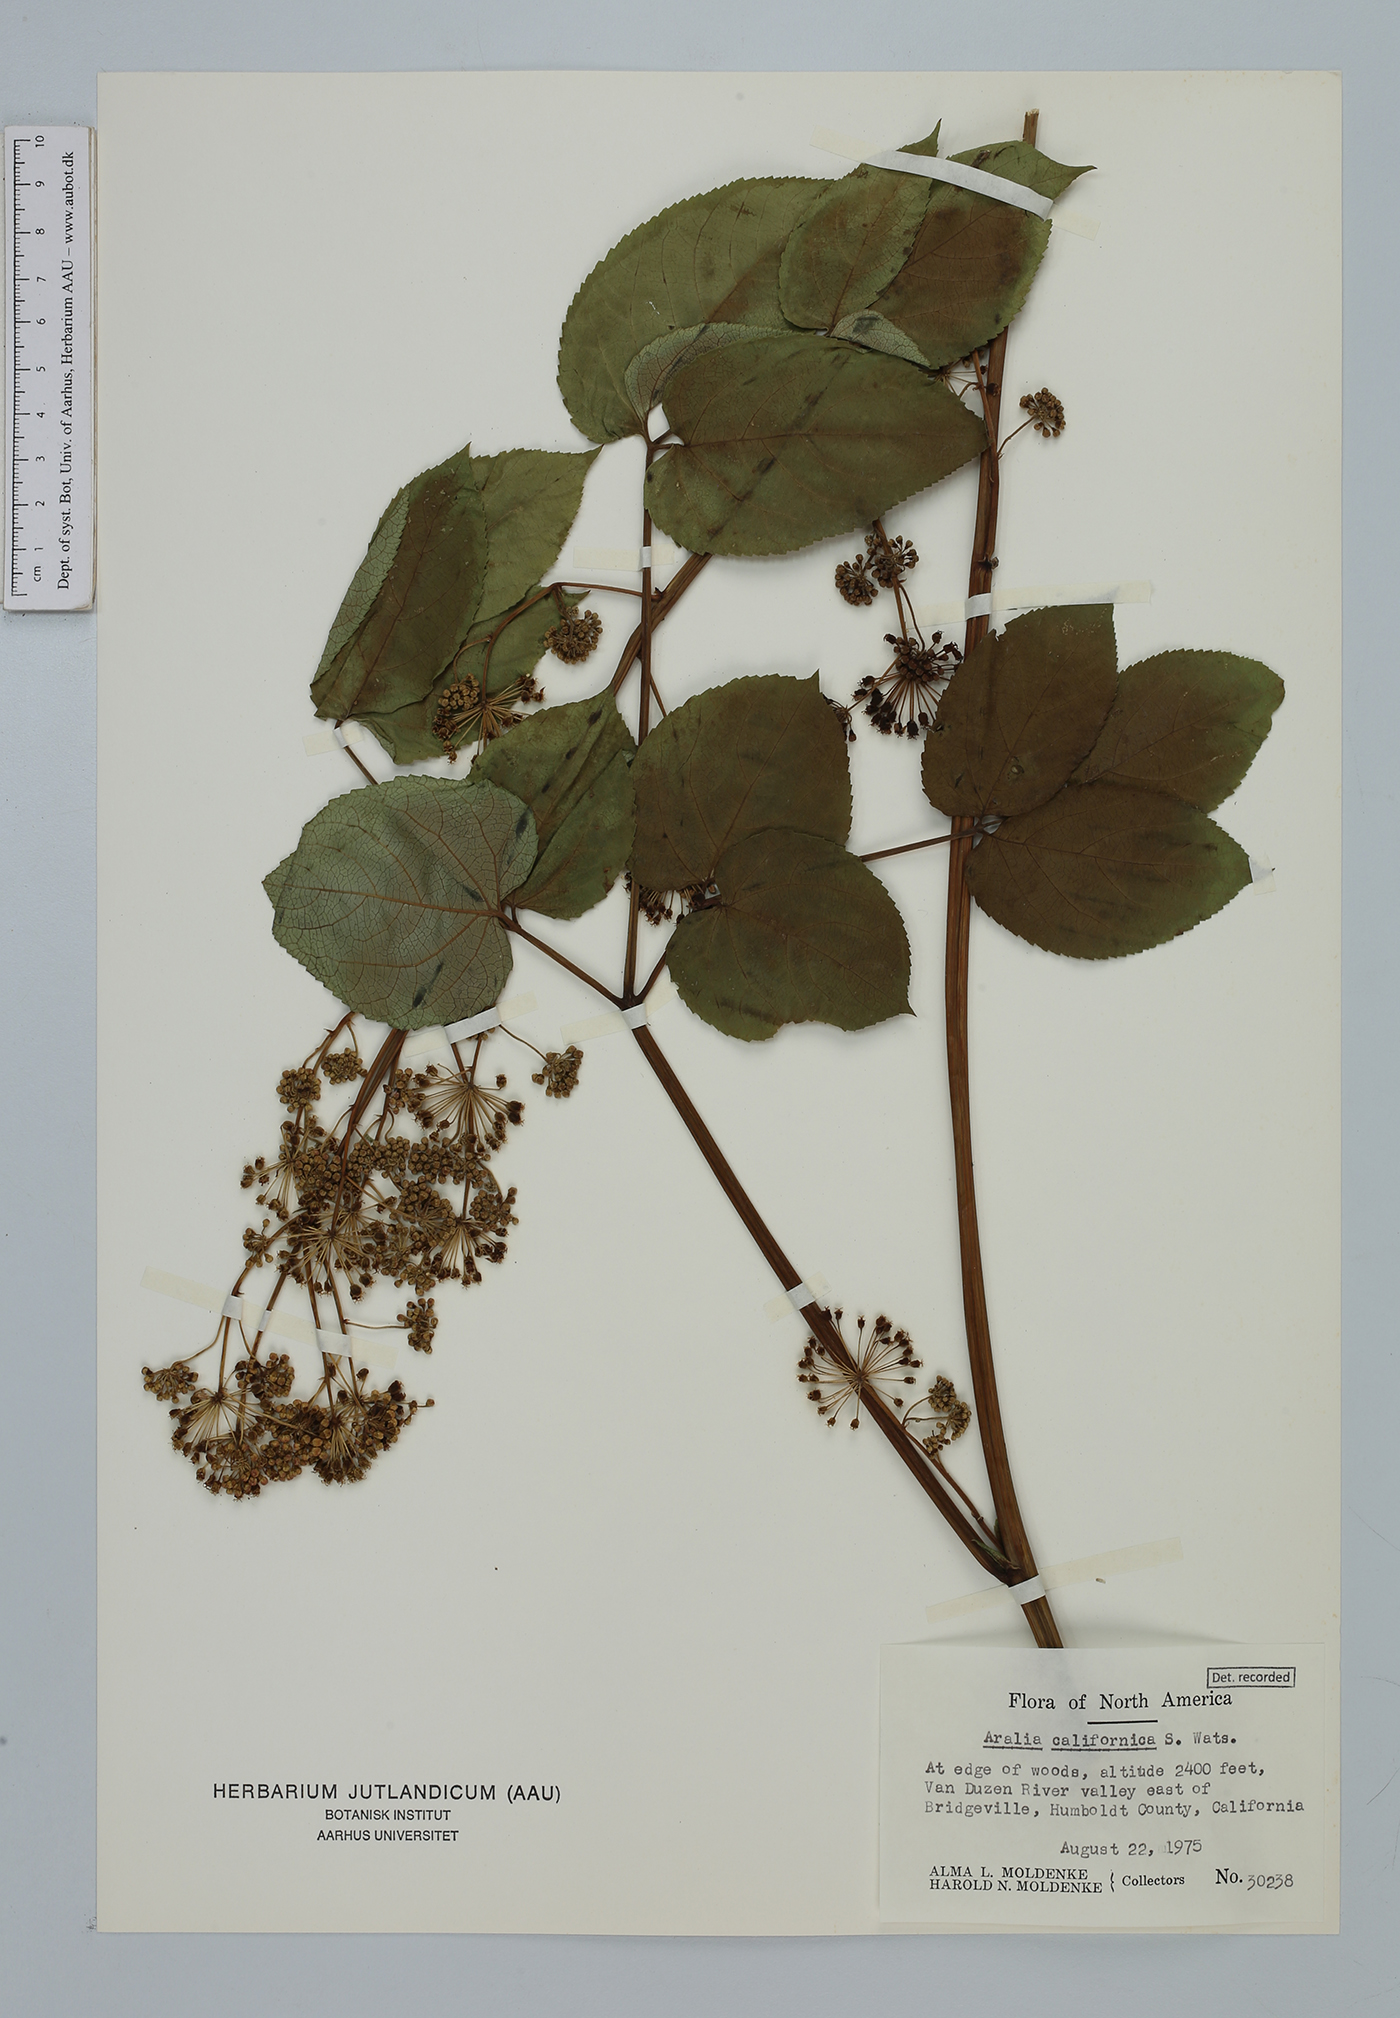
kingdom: Plantae
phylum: Tracheophyta
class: Magnoliopsida
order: Apiales
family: Araliaceae
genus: Aralia
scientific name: Aralia californica
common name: California-ginseng
